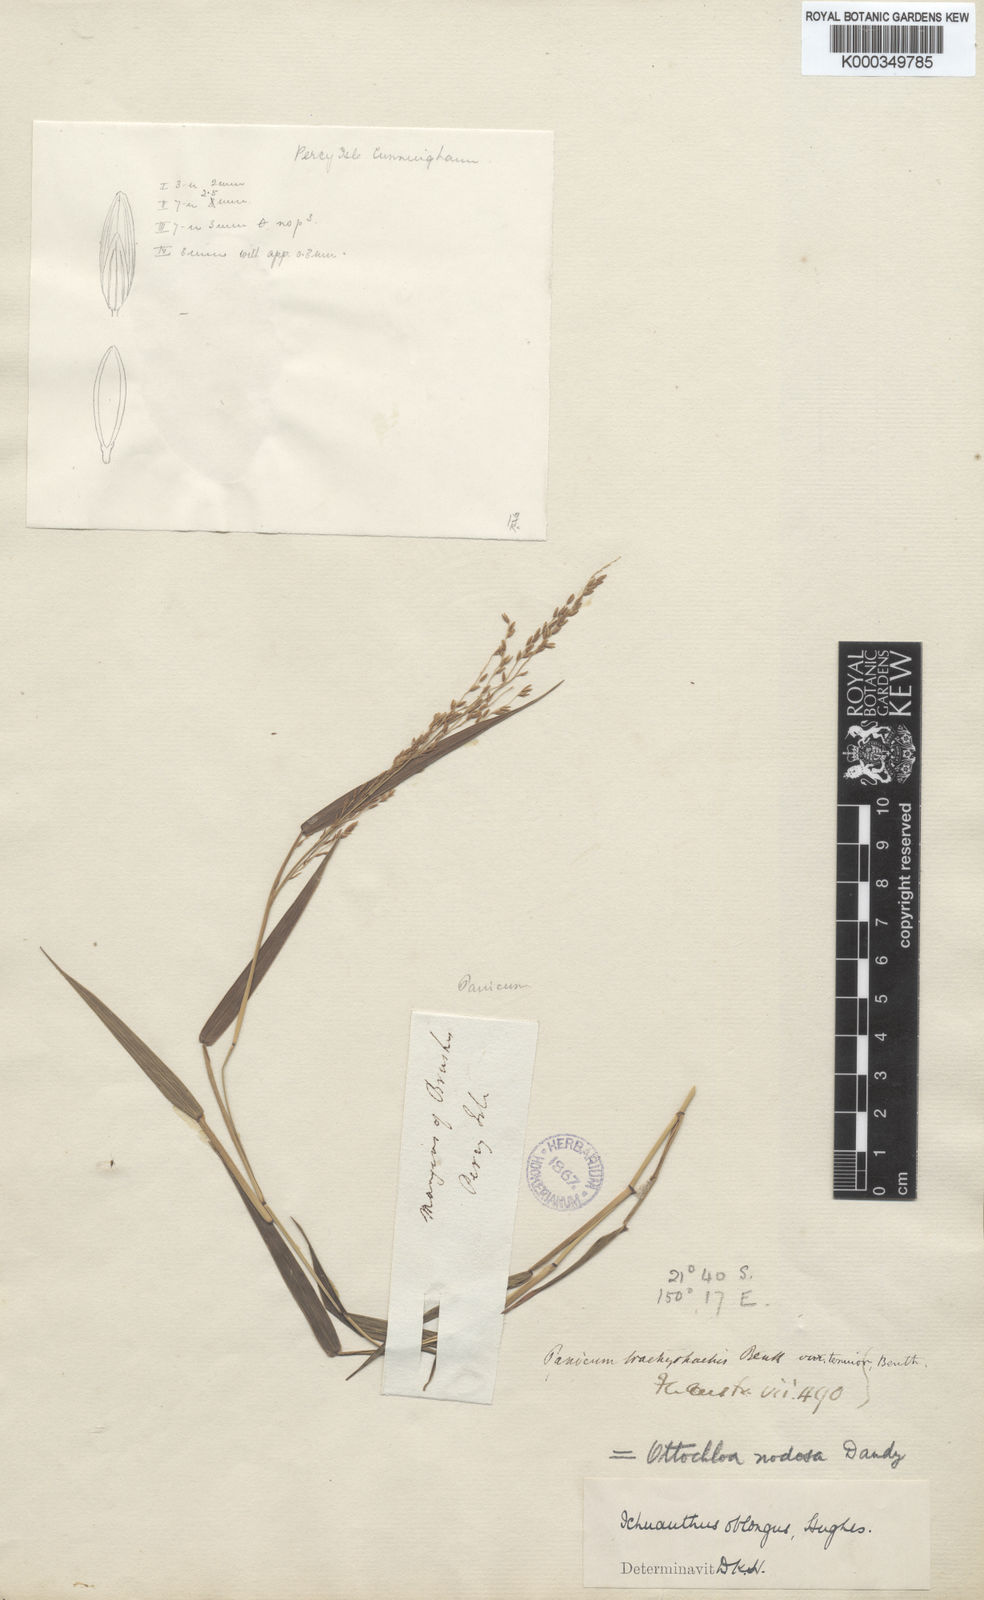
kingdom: Plantae
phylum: Tracheophyta
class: Liliopsida
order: Poales
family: Poaceae
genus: Ottochloa
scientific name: Ottochloa nodosa
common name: Slender-panic grass
